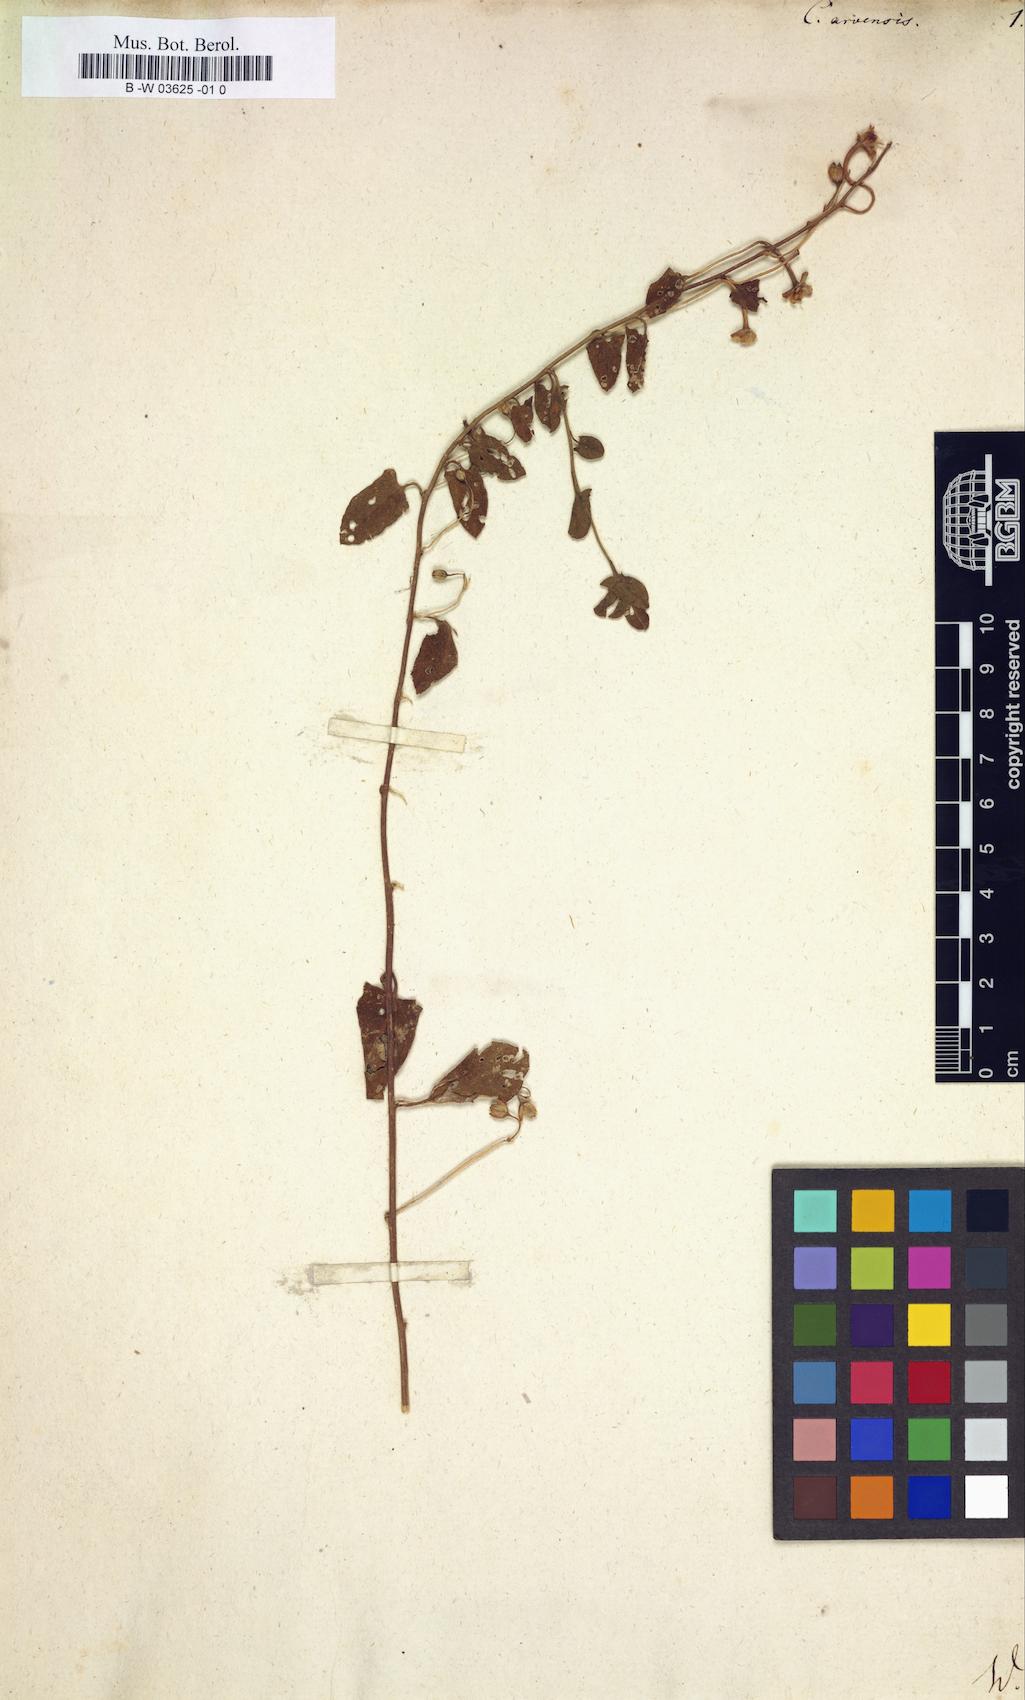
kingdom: Plantae
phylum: Tracheophyta
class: Magnoliopsida
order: Solanales
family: Convolvulaceae
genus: Convolvulus
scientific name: Convolvulus arvensis
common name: Field bindweed
